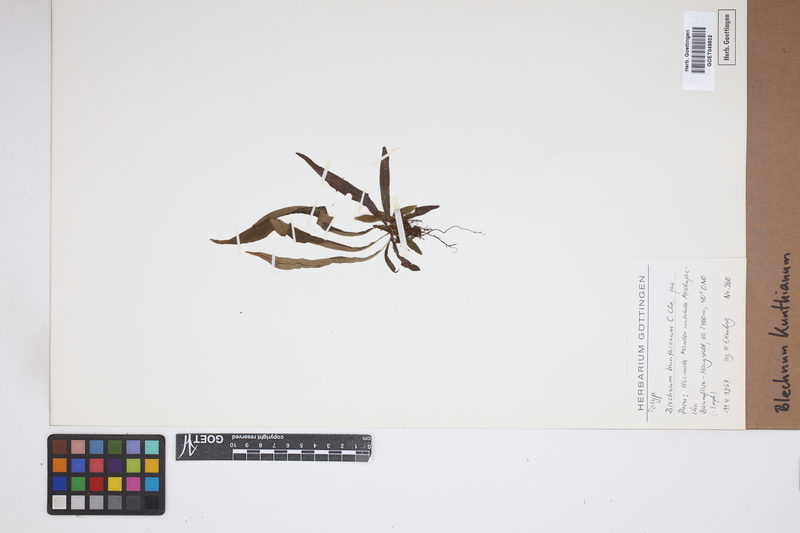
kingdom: Plantae
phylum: Tracheophyta
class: Polypodiopsida
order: Polypodiales
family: Blechnaceae
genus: Lomaridium
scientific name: Lomaridium acutum
